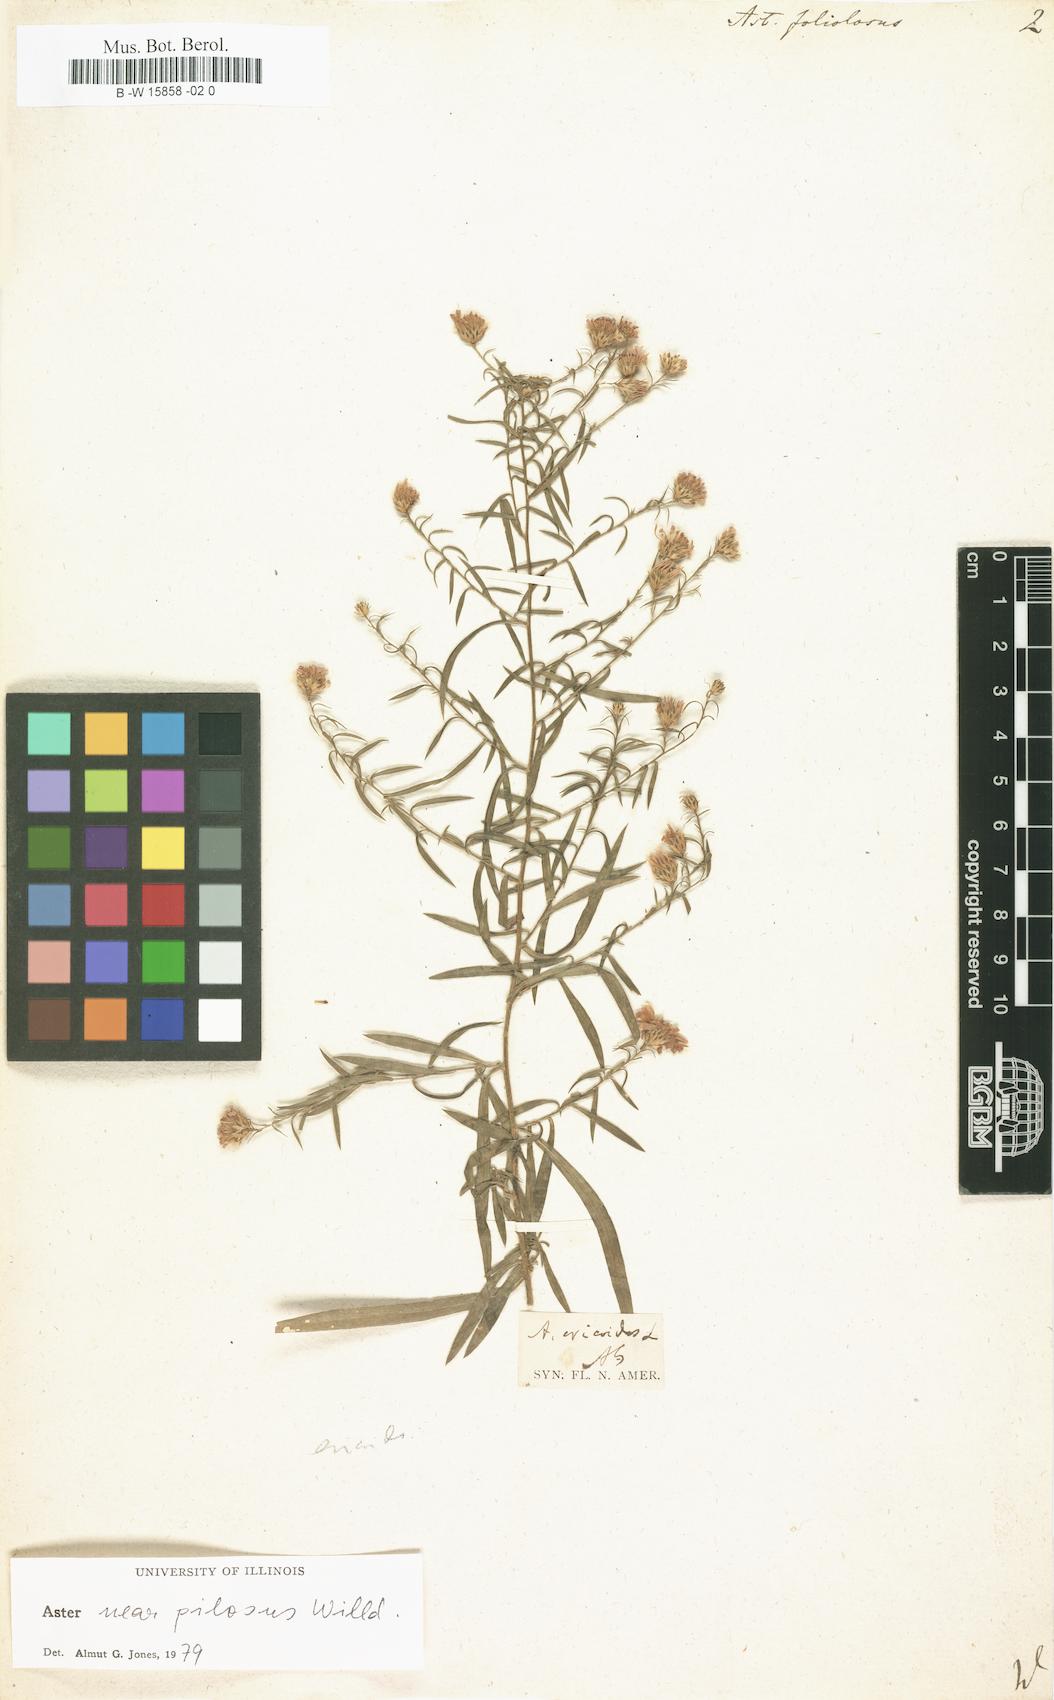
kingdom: Plantae
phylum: Tracheophyta
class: Magnoliopsida
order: Asterales
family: Asteraceae
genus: Symphyotrichum
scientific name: Symphyotrichum racemosum
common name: Small white aster
